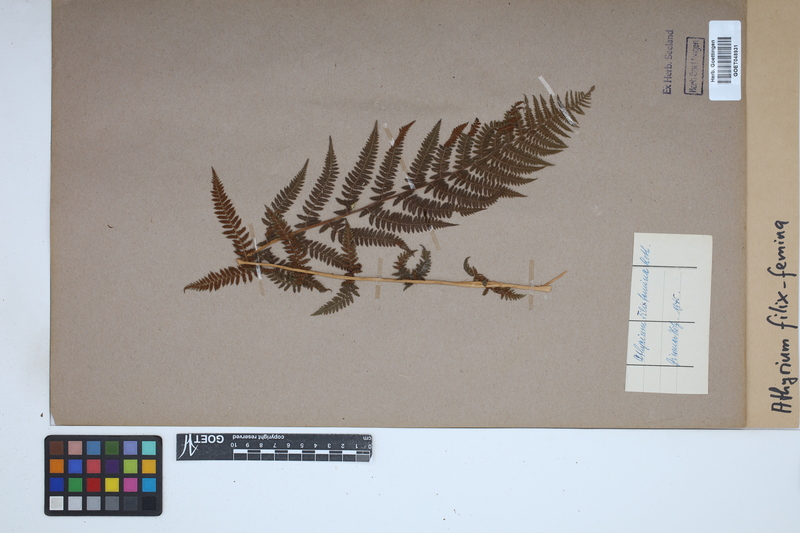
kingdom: Plantae
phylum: Tracheophyta
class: Polypodiopsida
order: Polypodiales
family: Athyriaceae
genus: Athyrium
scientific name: Athyrium filix-femina
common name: Lady fern
